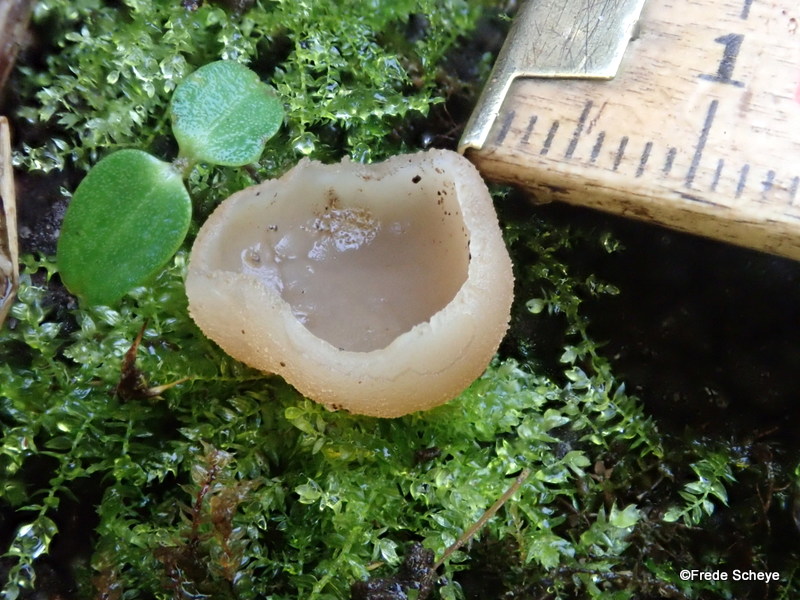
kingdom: Fungi
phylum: Ascomycota
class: Pezizomycetes
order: Pezizales
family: Pezizaceae
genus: Peziza
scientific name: Peziza fimeti
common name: møg-bægersvamp
